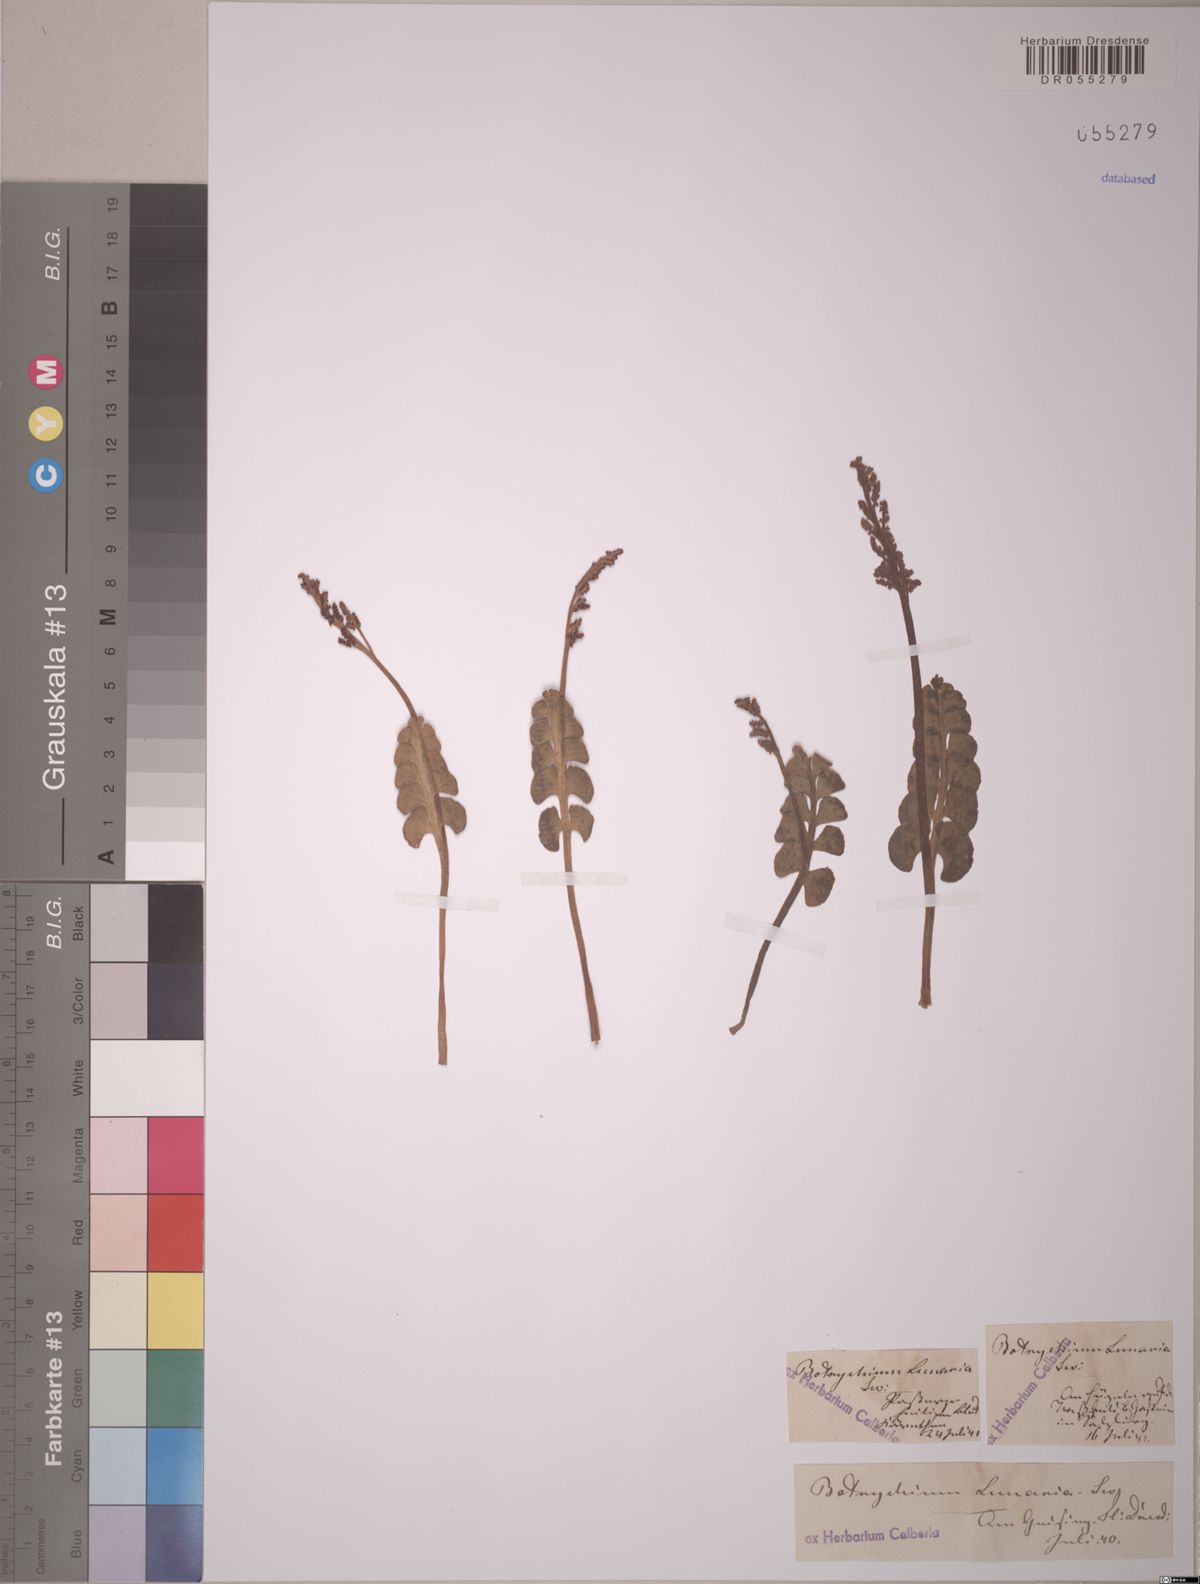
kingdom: Plantae
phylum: Tracheophyta
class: Polypodiopsida
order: Ophioglossales
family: Ophioglossaceae
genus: Botrychium
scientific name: Botrychium lunaria
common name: Moonwort
